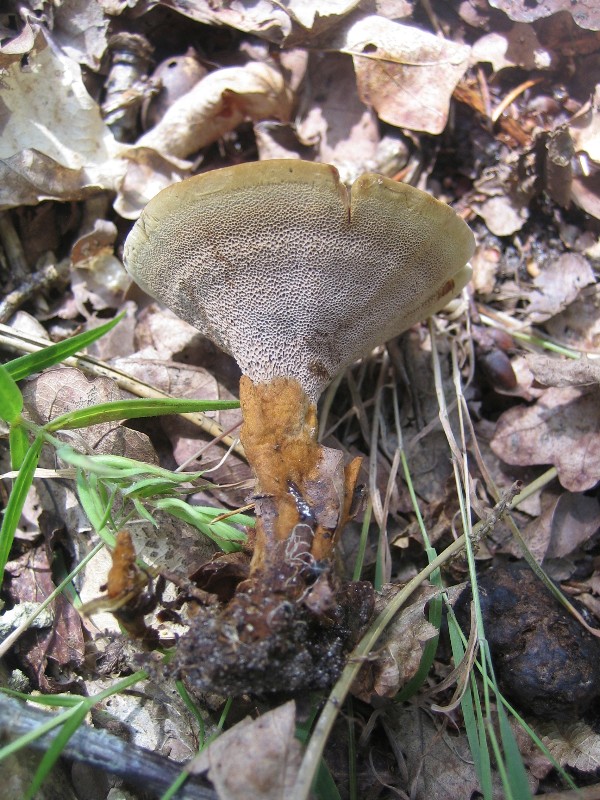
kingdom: Fungi
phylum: Basidiomycota
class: Agaricomycetes
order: Hymenochaetales
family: Hymenochaetaceae
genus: Coltricia
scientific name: Coltricia perennis
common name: almindelig sandporesvamp
